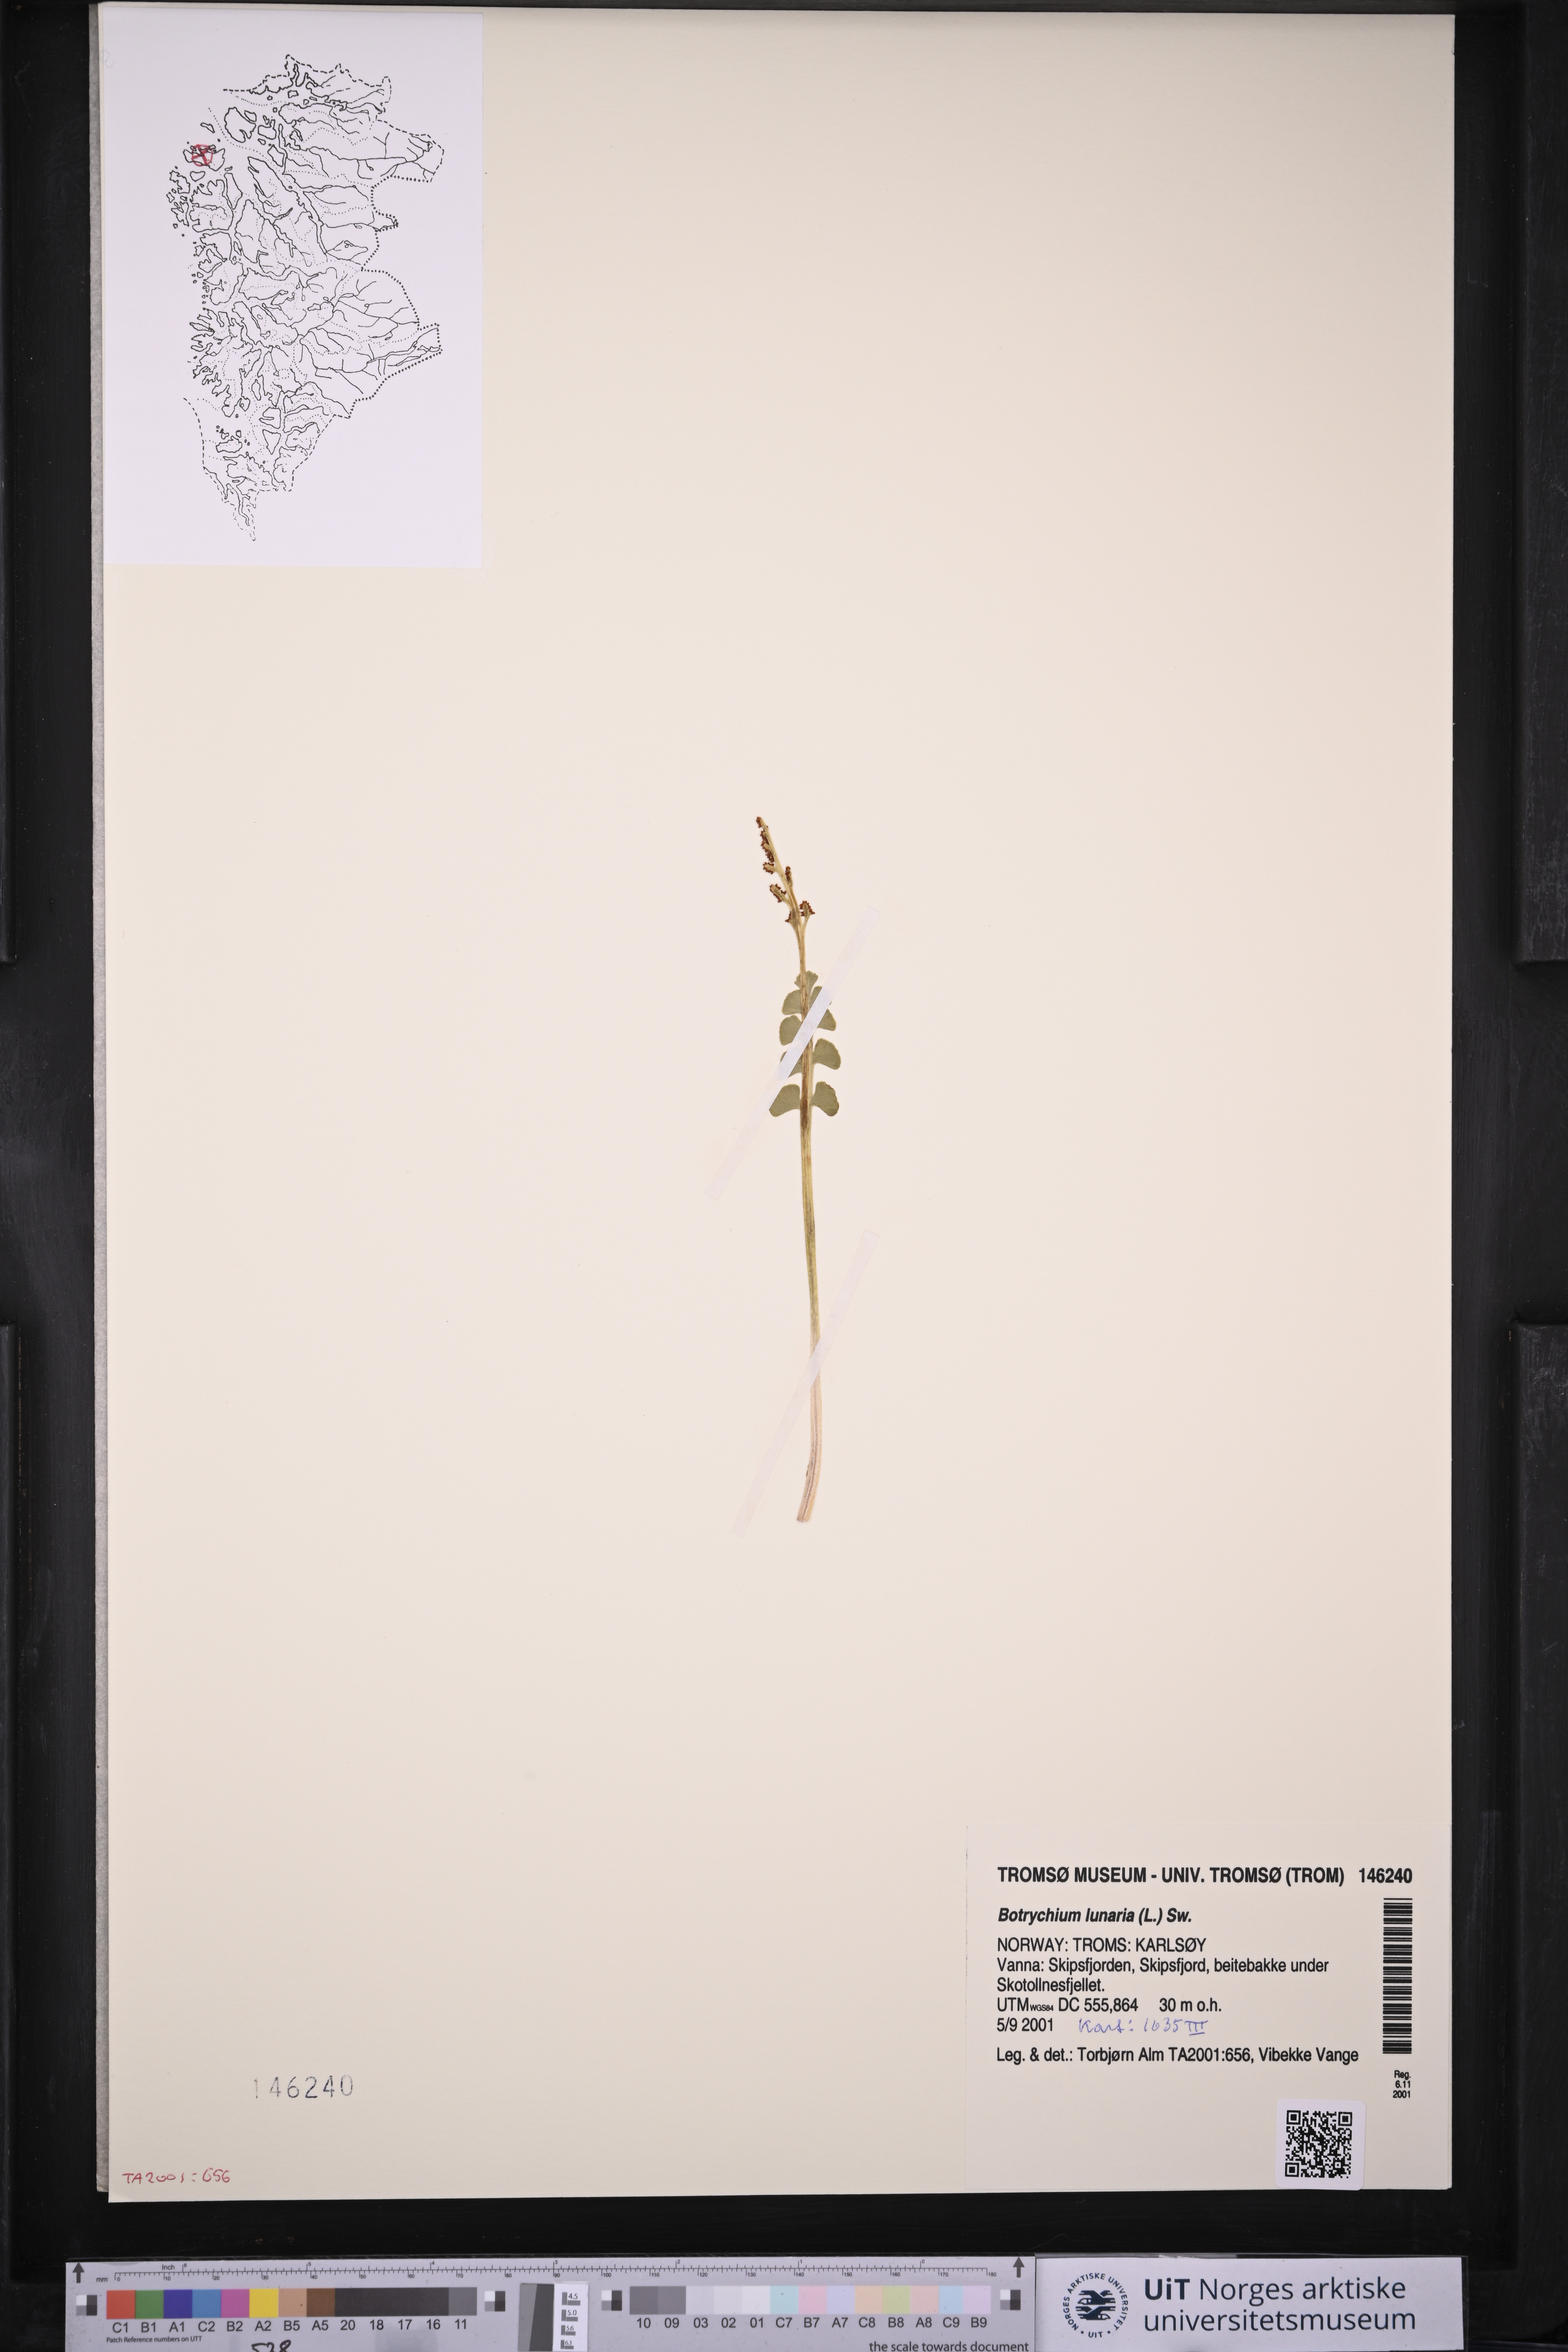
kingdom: Plantae
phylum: Tracheophyta
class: Polypodiopsida
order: Ophioglossales
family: Ophioglossaceae
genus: Botrychium
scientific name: Botrychium lunaria
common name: Moonwort
